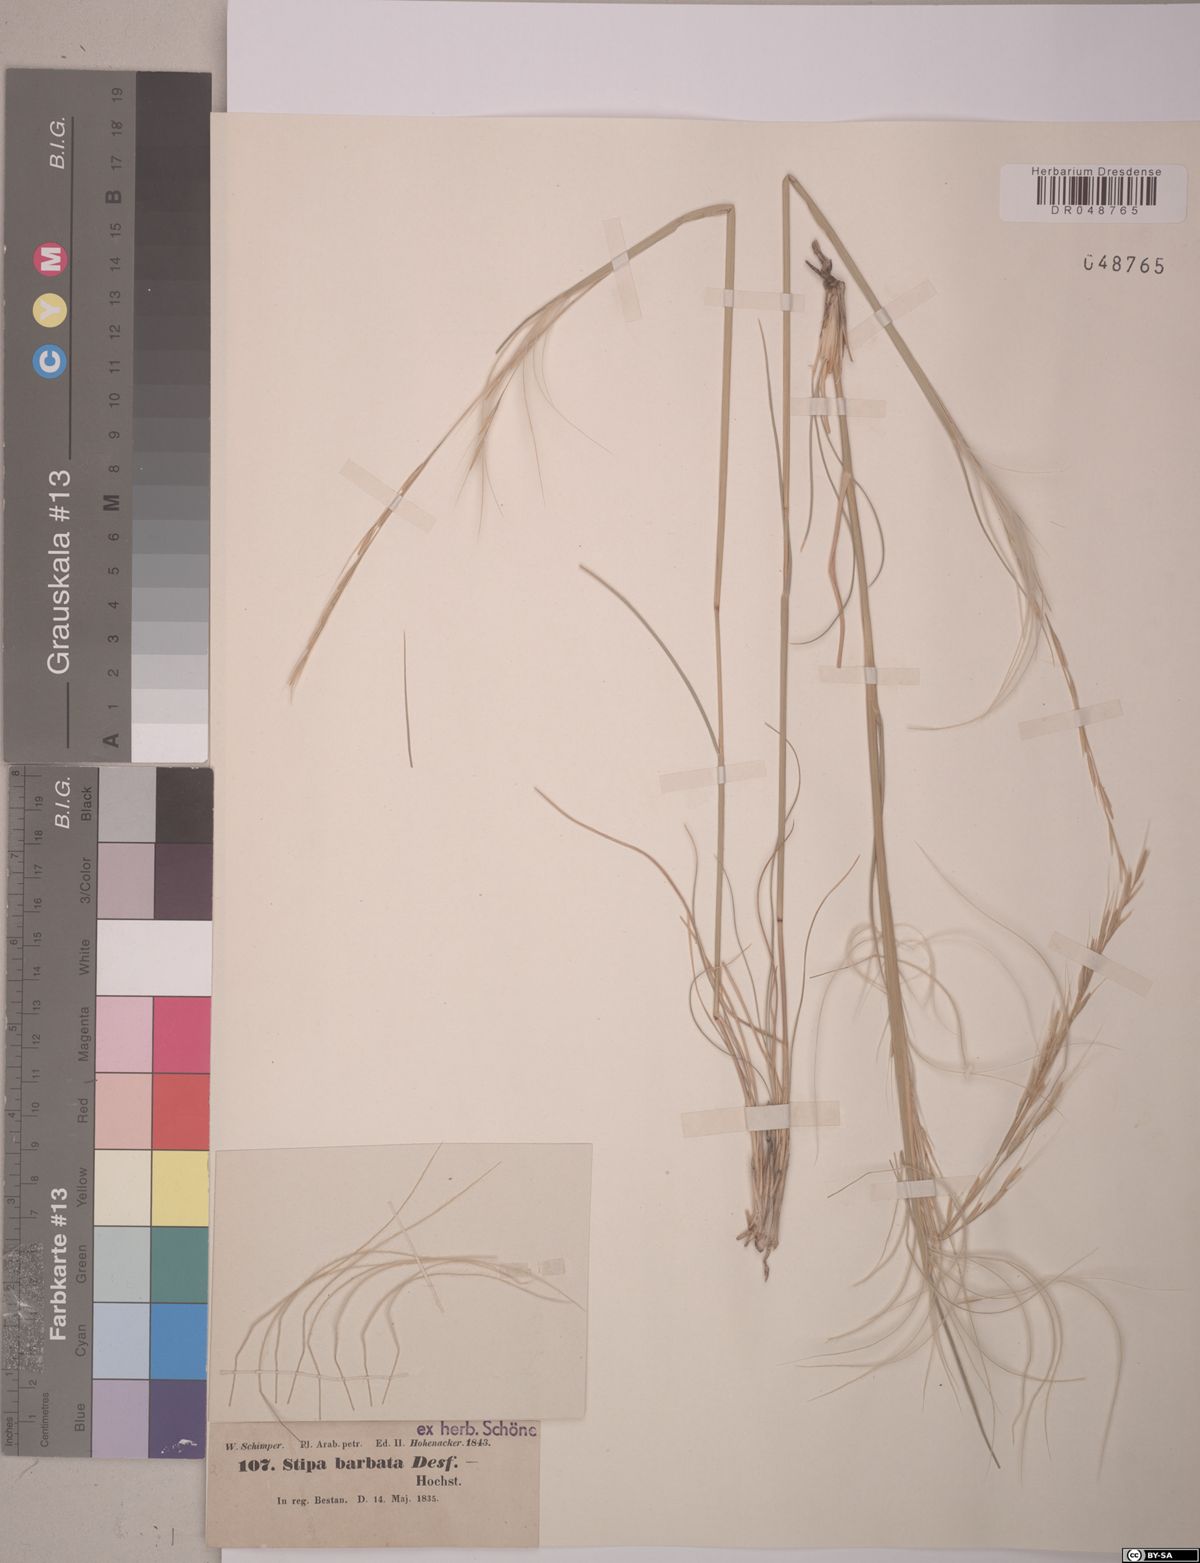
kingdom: Plantae
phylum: Tracheophyta
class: Liliopsida
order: Poales
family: Poaceae
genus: Stipa
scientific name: Stipa barbata
